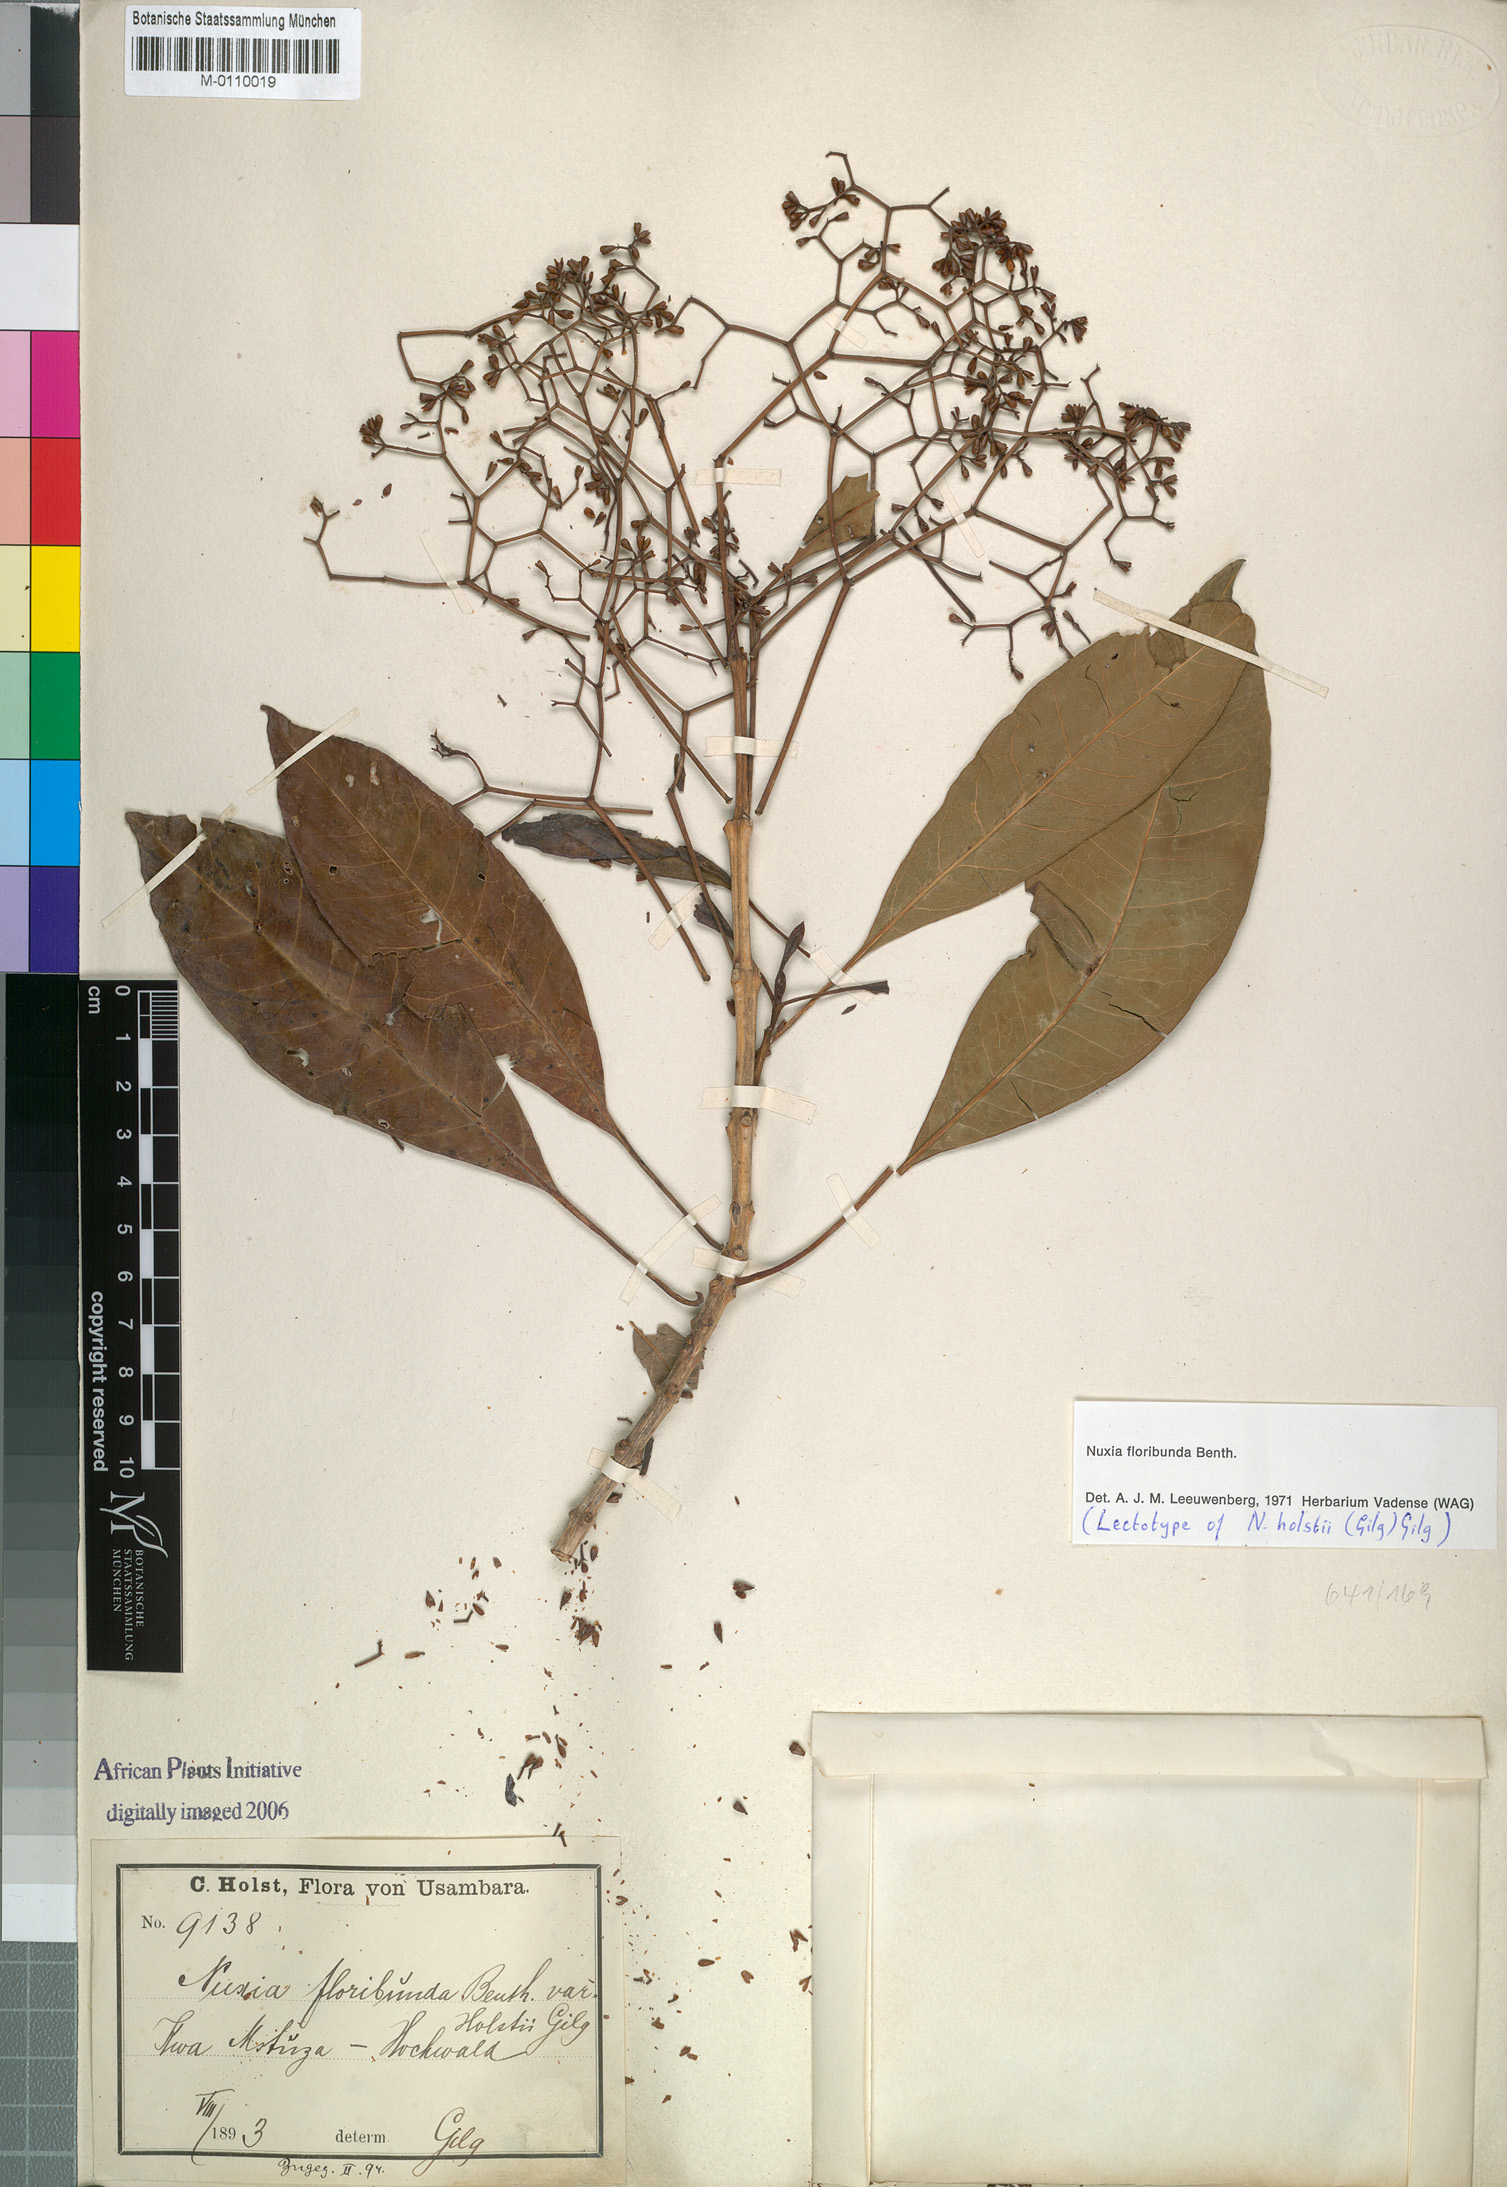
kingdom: Plantae
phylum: Tracheophyta
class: Magnoliopsida
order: Lamiales
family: Stilbaceae
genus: Nuxia
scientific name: Nuxia floribunda
